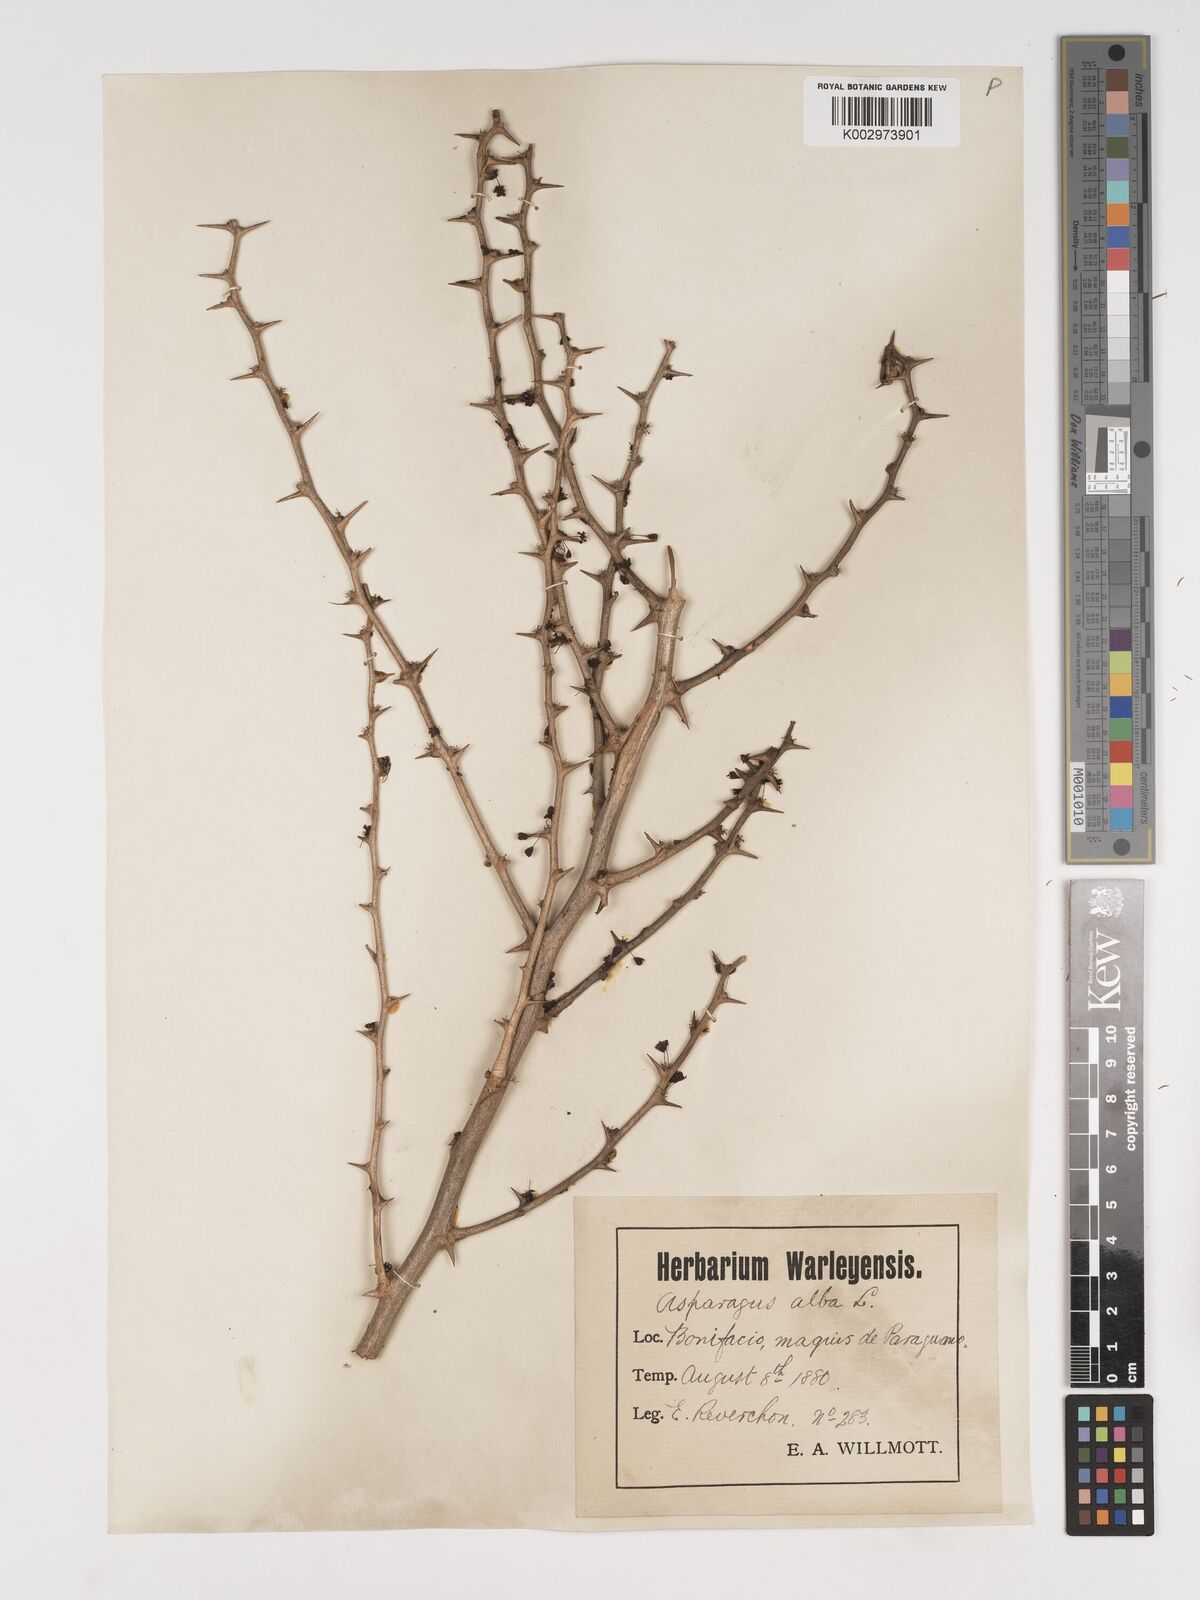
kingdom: Plantae
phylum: Tracheophyta
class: Liliopsida
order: Asparagales
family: Asparagaceae
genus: Asparagus
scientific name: Asparagus albus
